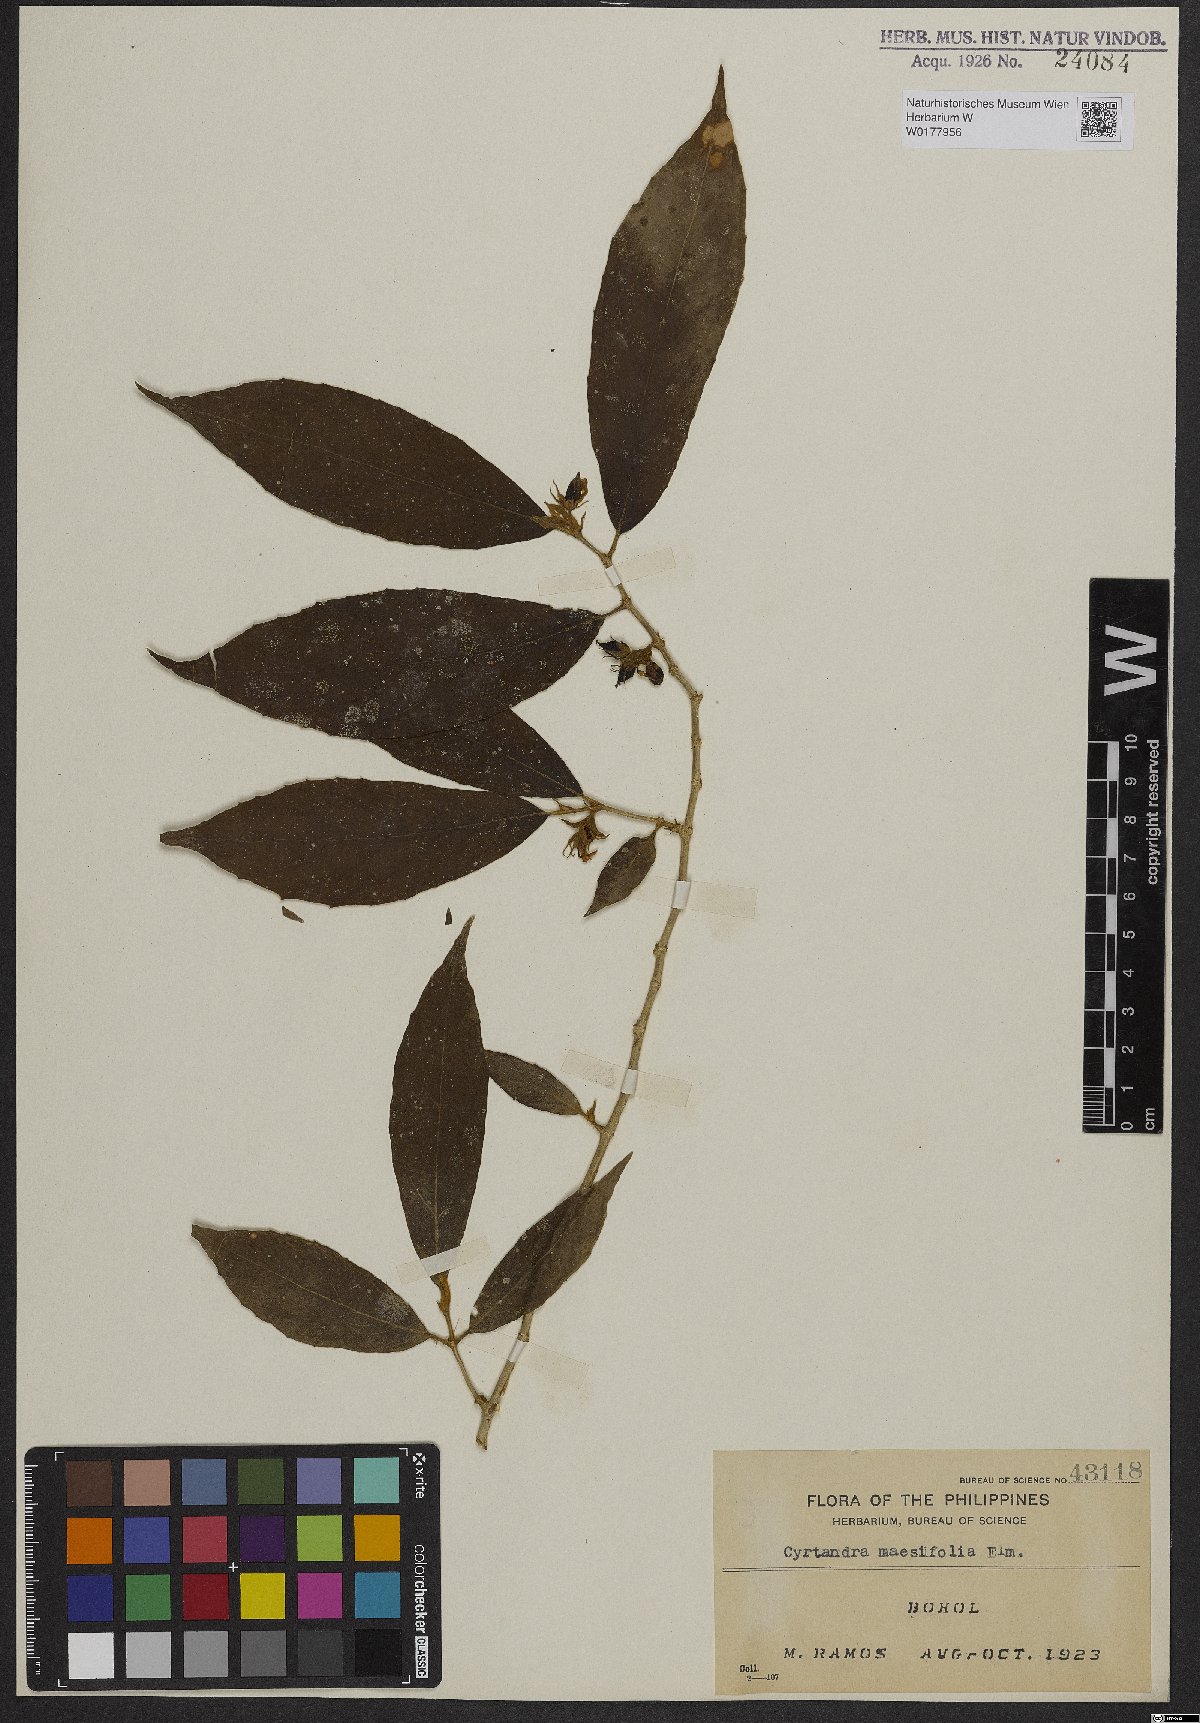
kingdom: Plantae
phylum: Tracheophyta
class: Magnoliopsida
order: Lamiales
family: Gesneriaceae
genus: Cyrtandra
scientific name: Cyrtandra maesifolia
